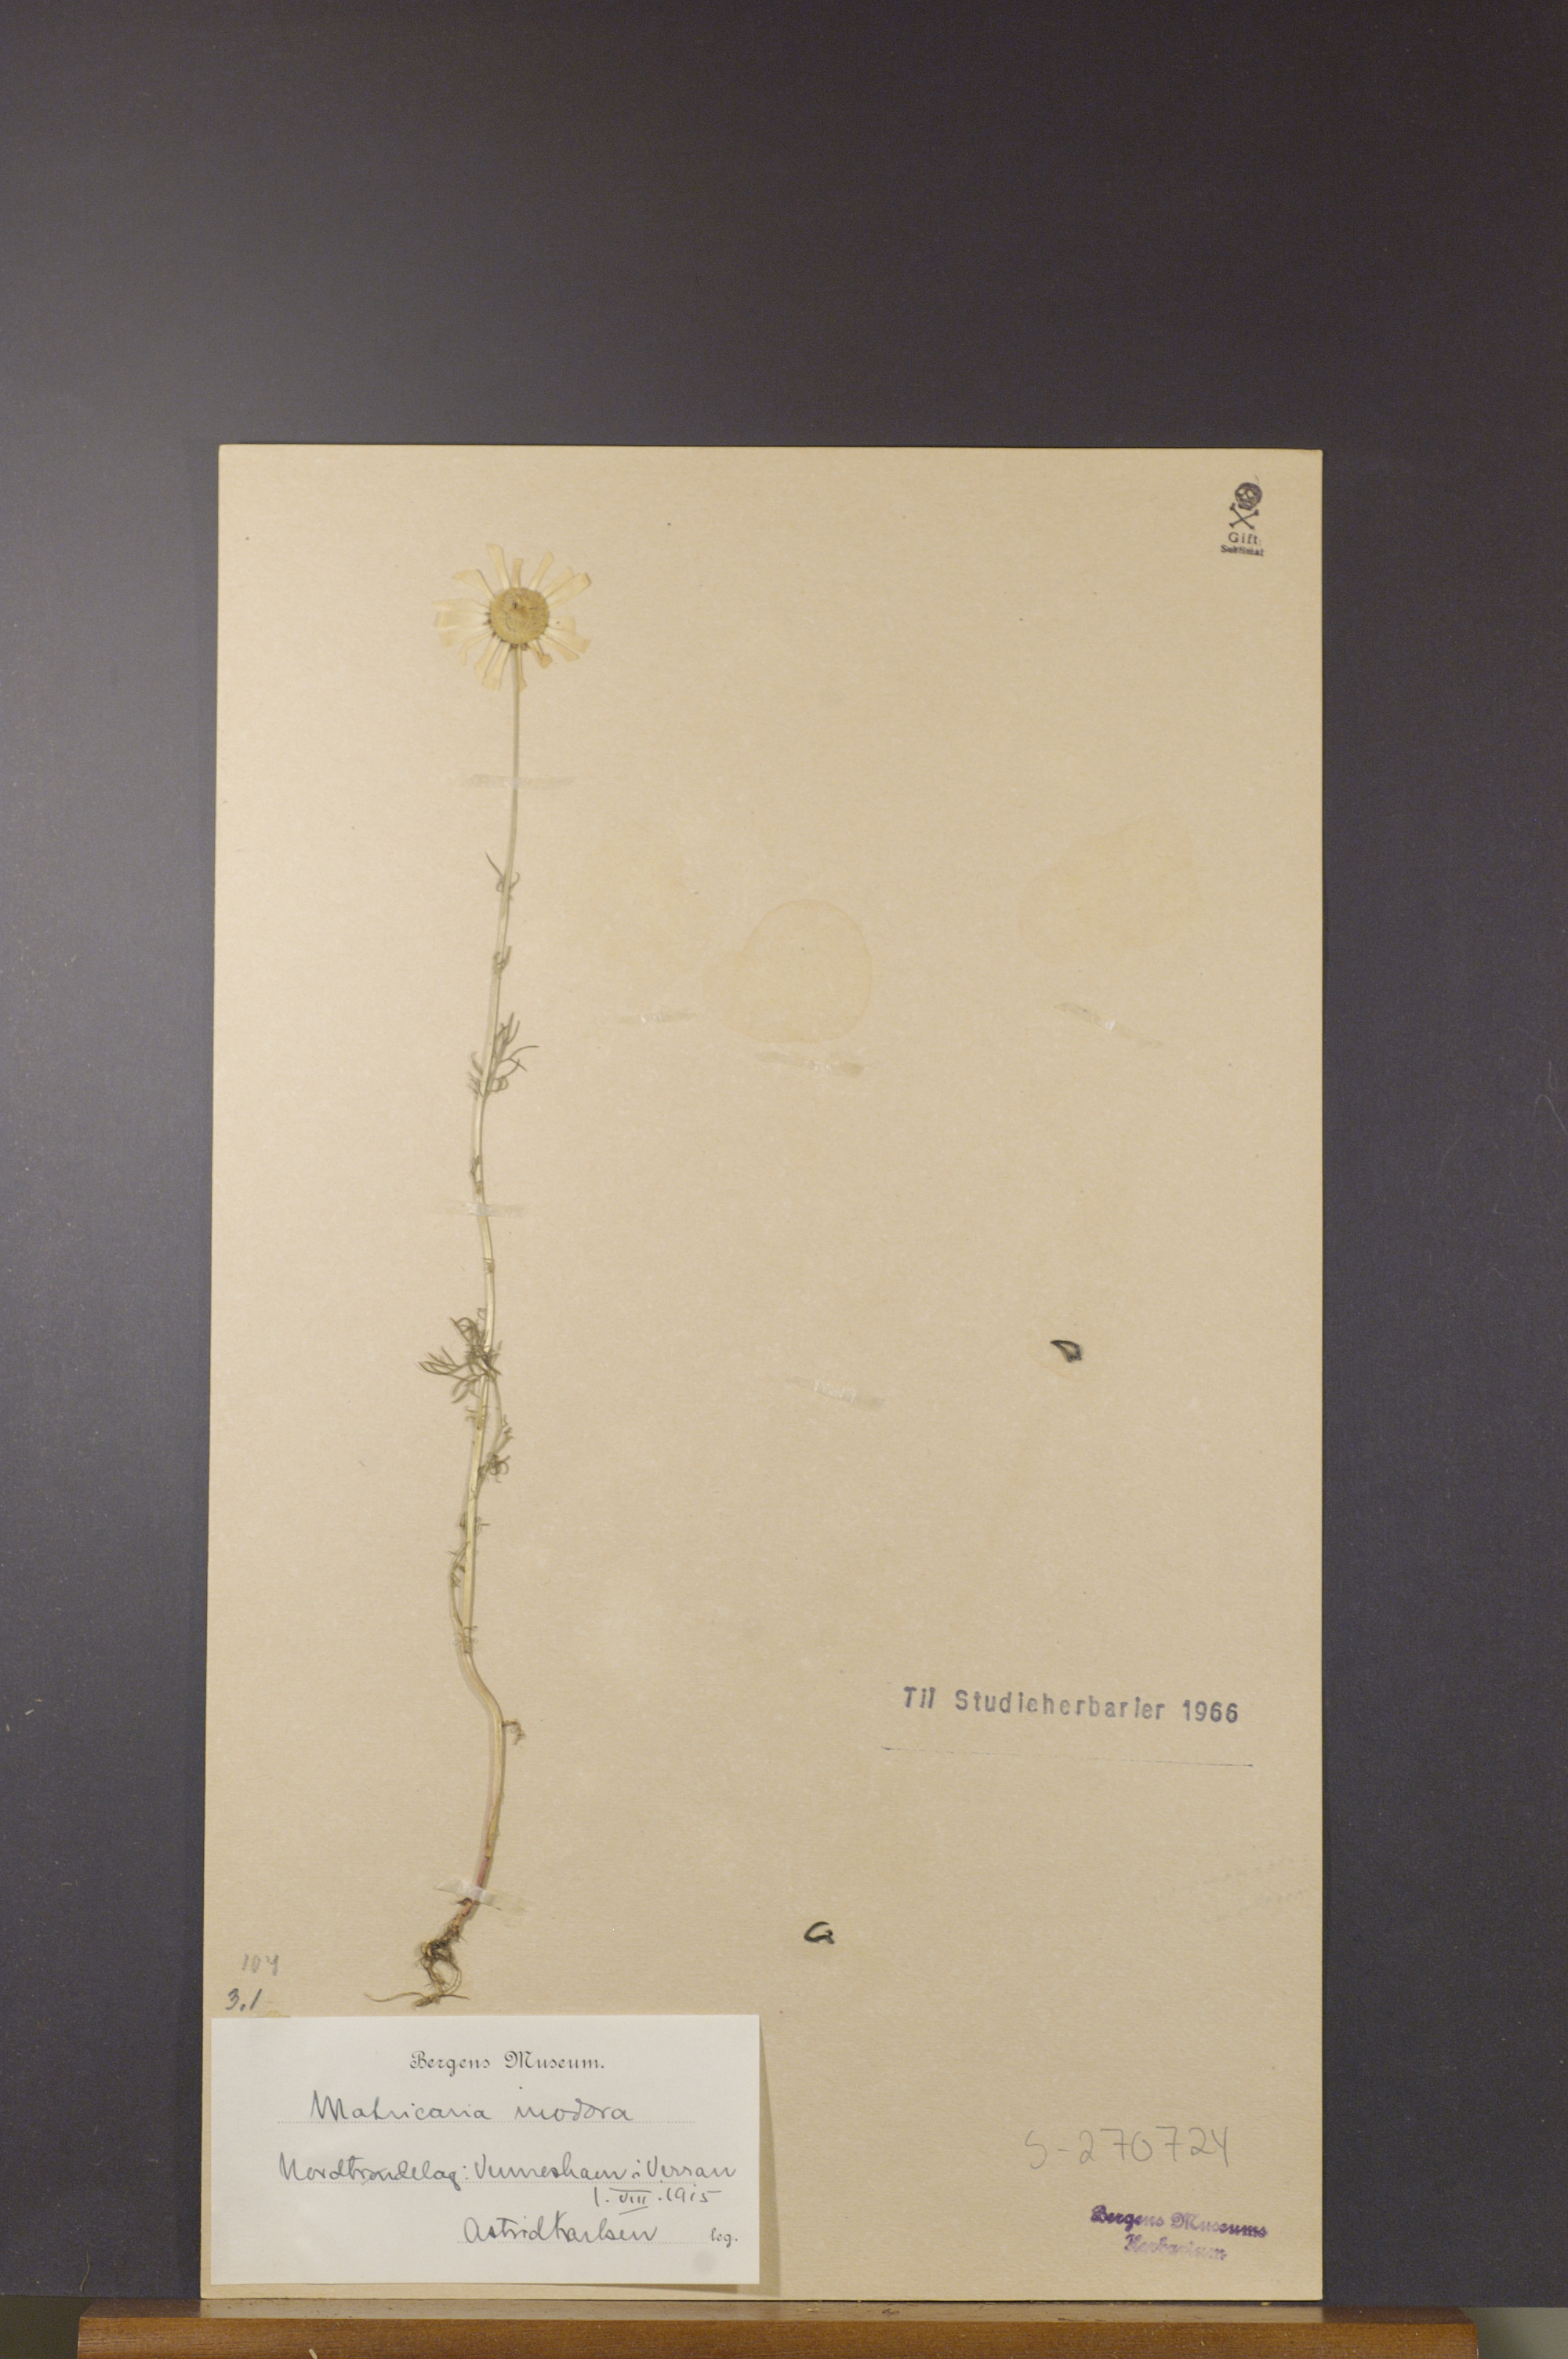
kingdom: Plantae
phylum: Tracheophyta
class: Magnoliopsida
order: Asterales
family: Asteraceae
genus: Tripleurospermum
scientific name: Tripleurospermum inodorum
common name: Scentless mayweed
